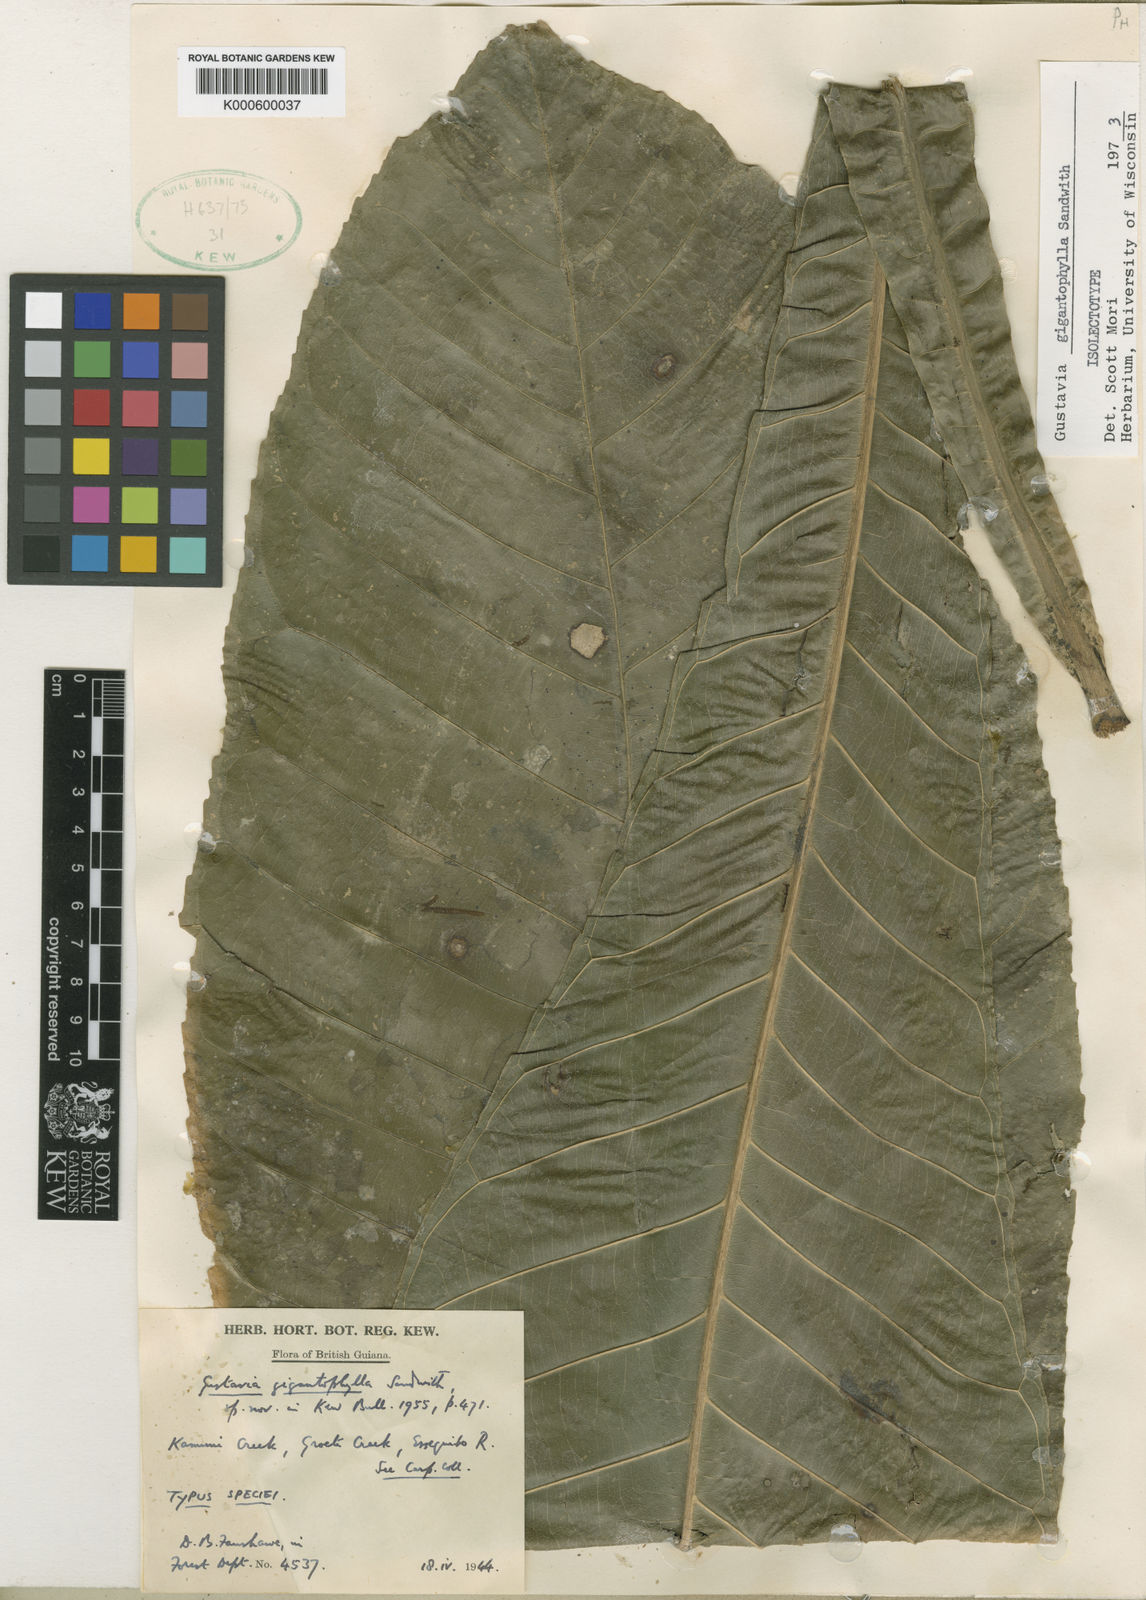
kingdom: Plantae
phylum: Tracheophyta
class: Magnoliopsida
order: Ericales
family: Lecythidaceae
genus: Gustavia
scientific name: Gustavia gigantophylla
